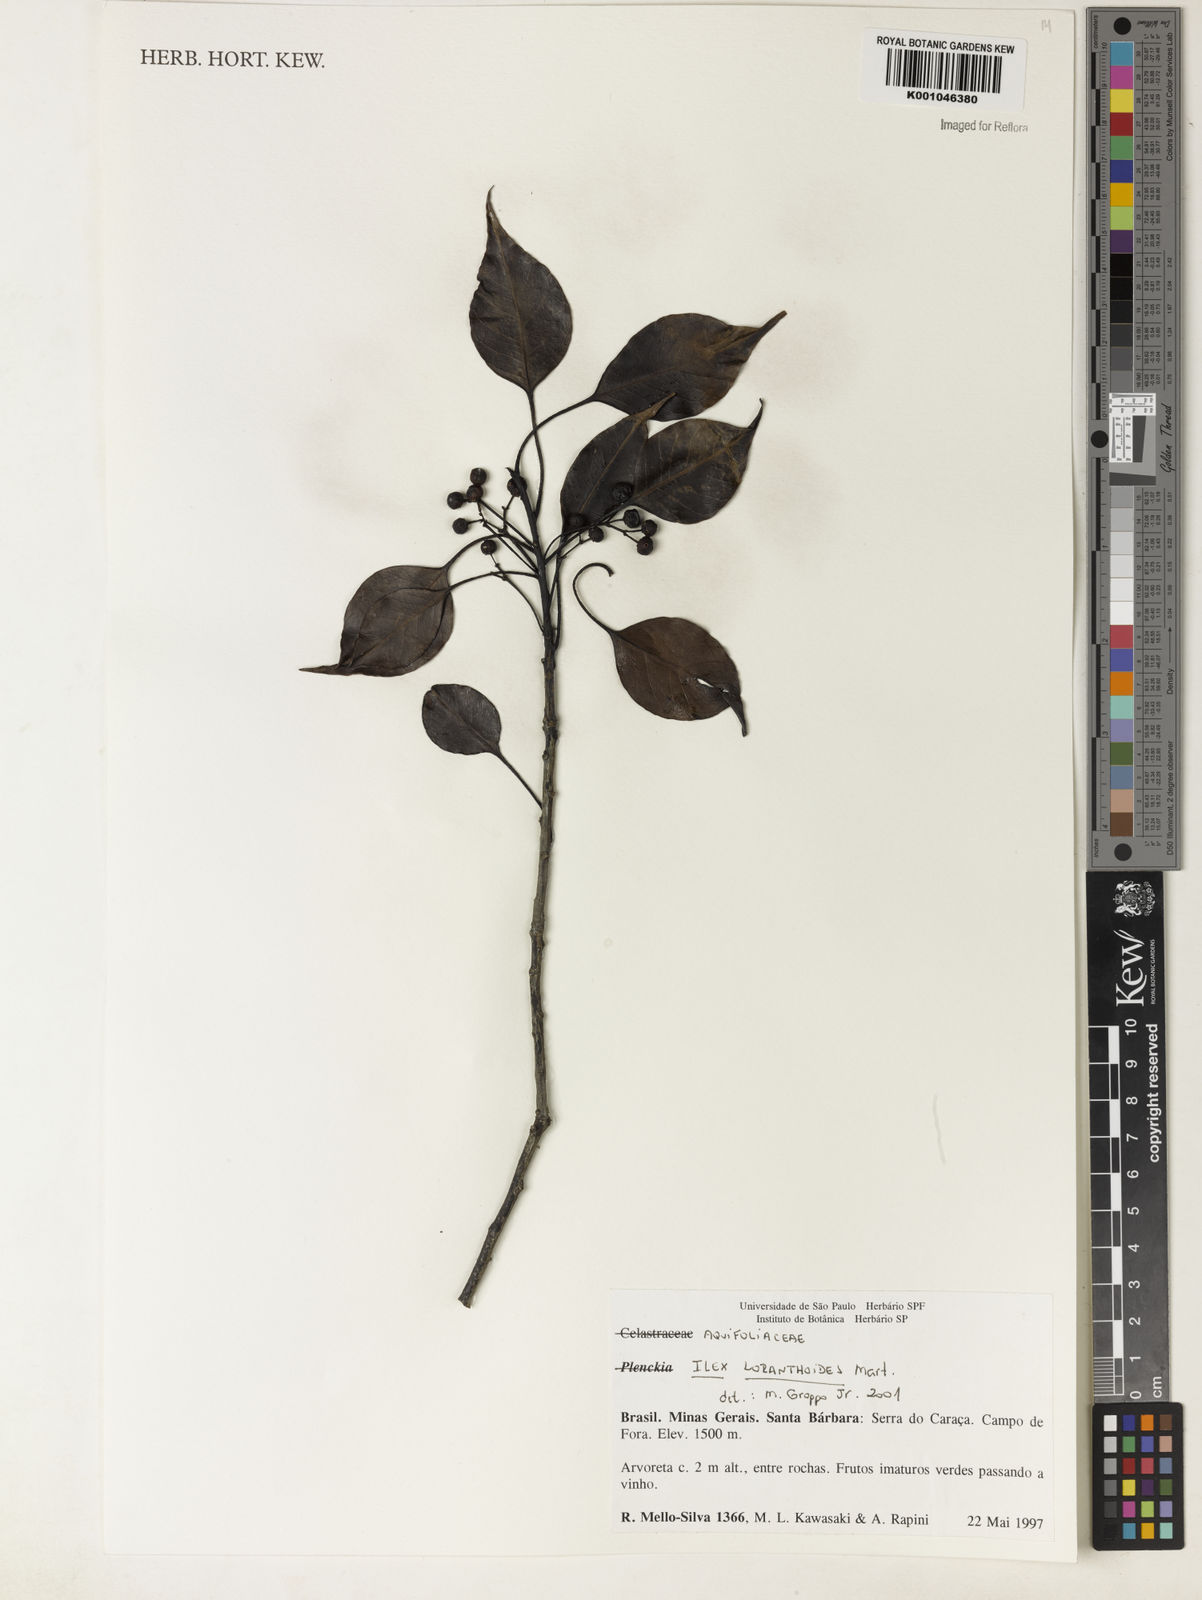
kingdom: Plantae
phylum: Tracheophyta
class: Magnoliopsida
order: Aquifoliales
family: Aquifoliaceae
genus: Ilex
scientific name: Ilex loranthoides
